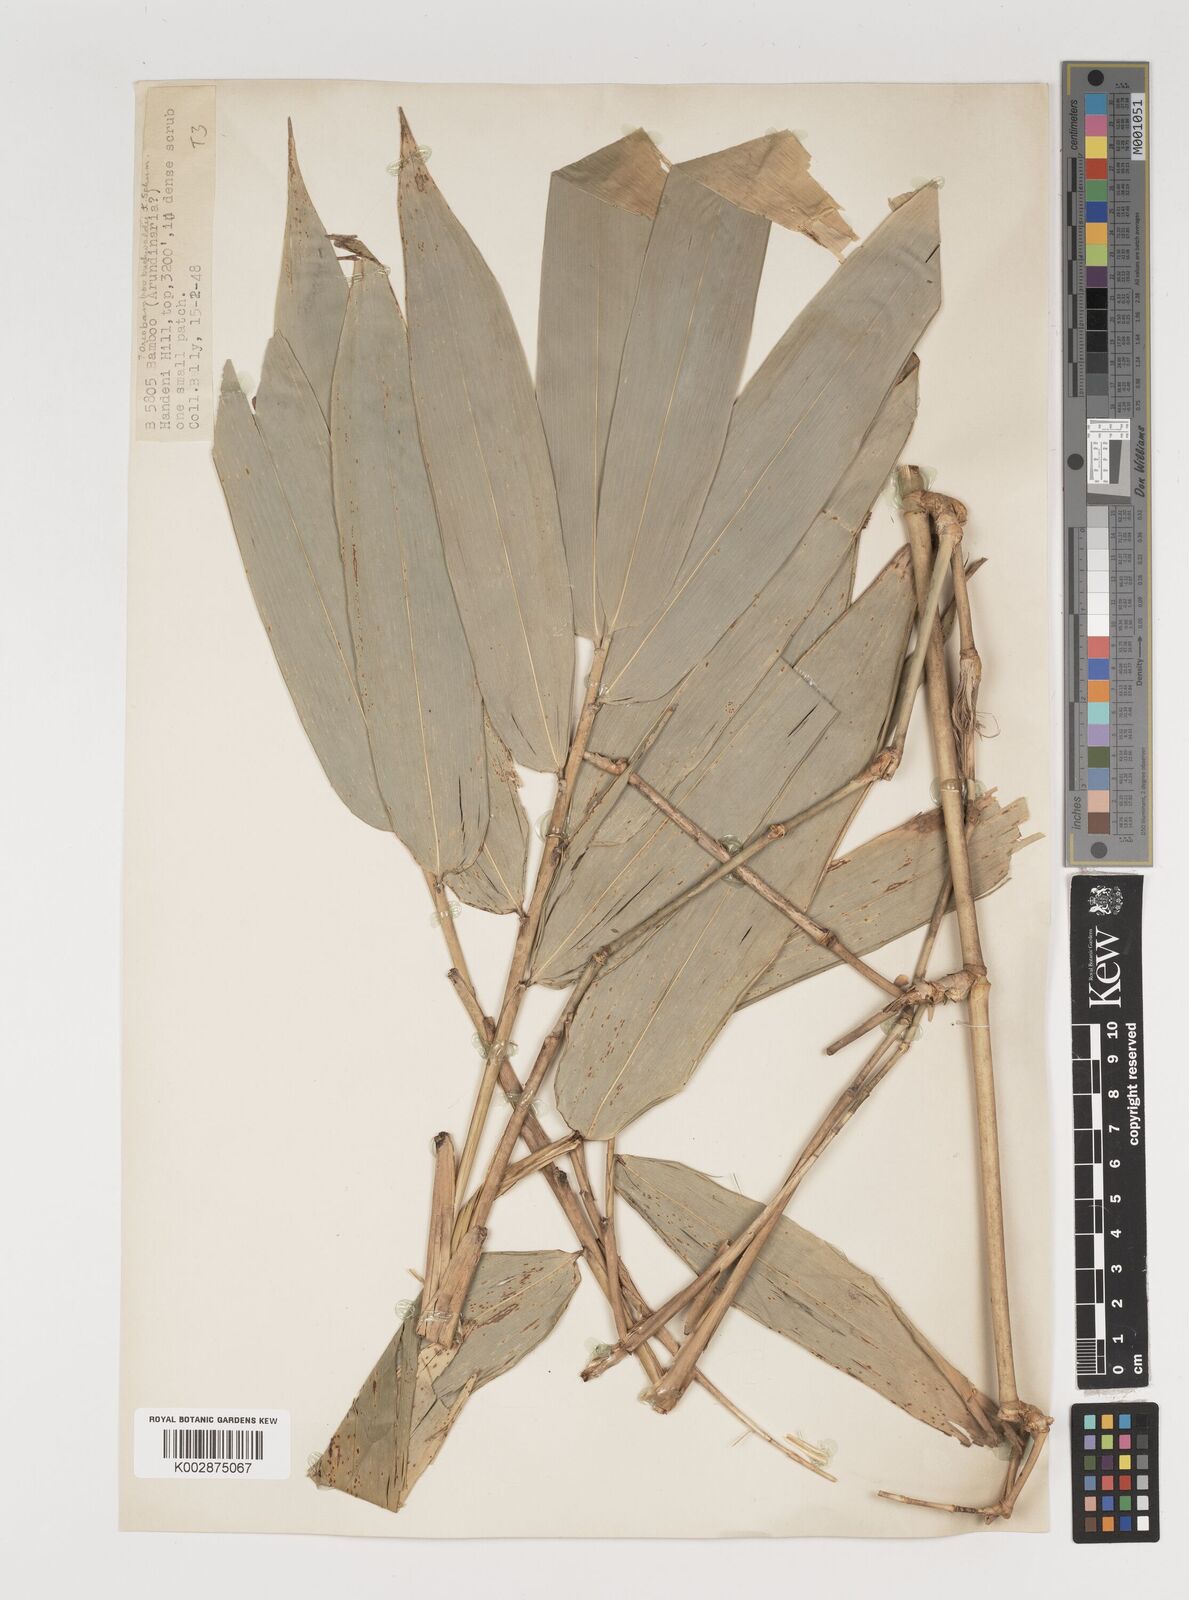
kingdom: Plantae
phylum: Tracheophyta
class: Liliopsida
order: Poales
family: Poaceae
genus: Oreobambos
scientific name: Oreobambos
